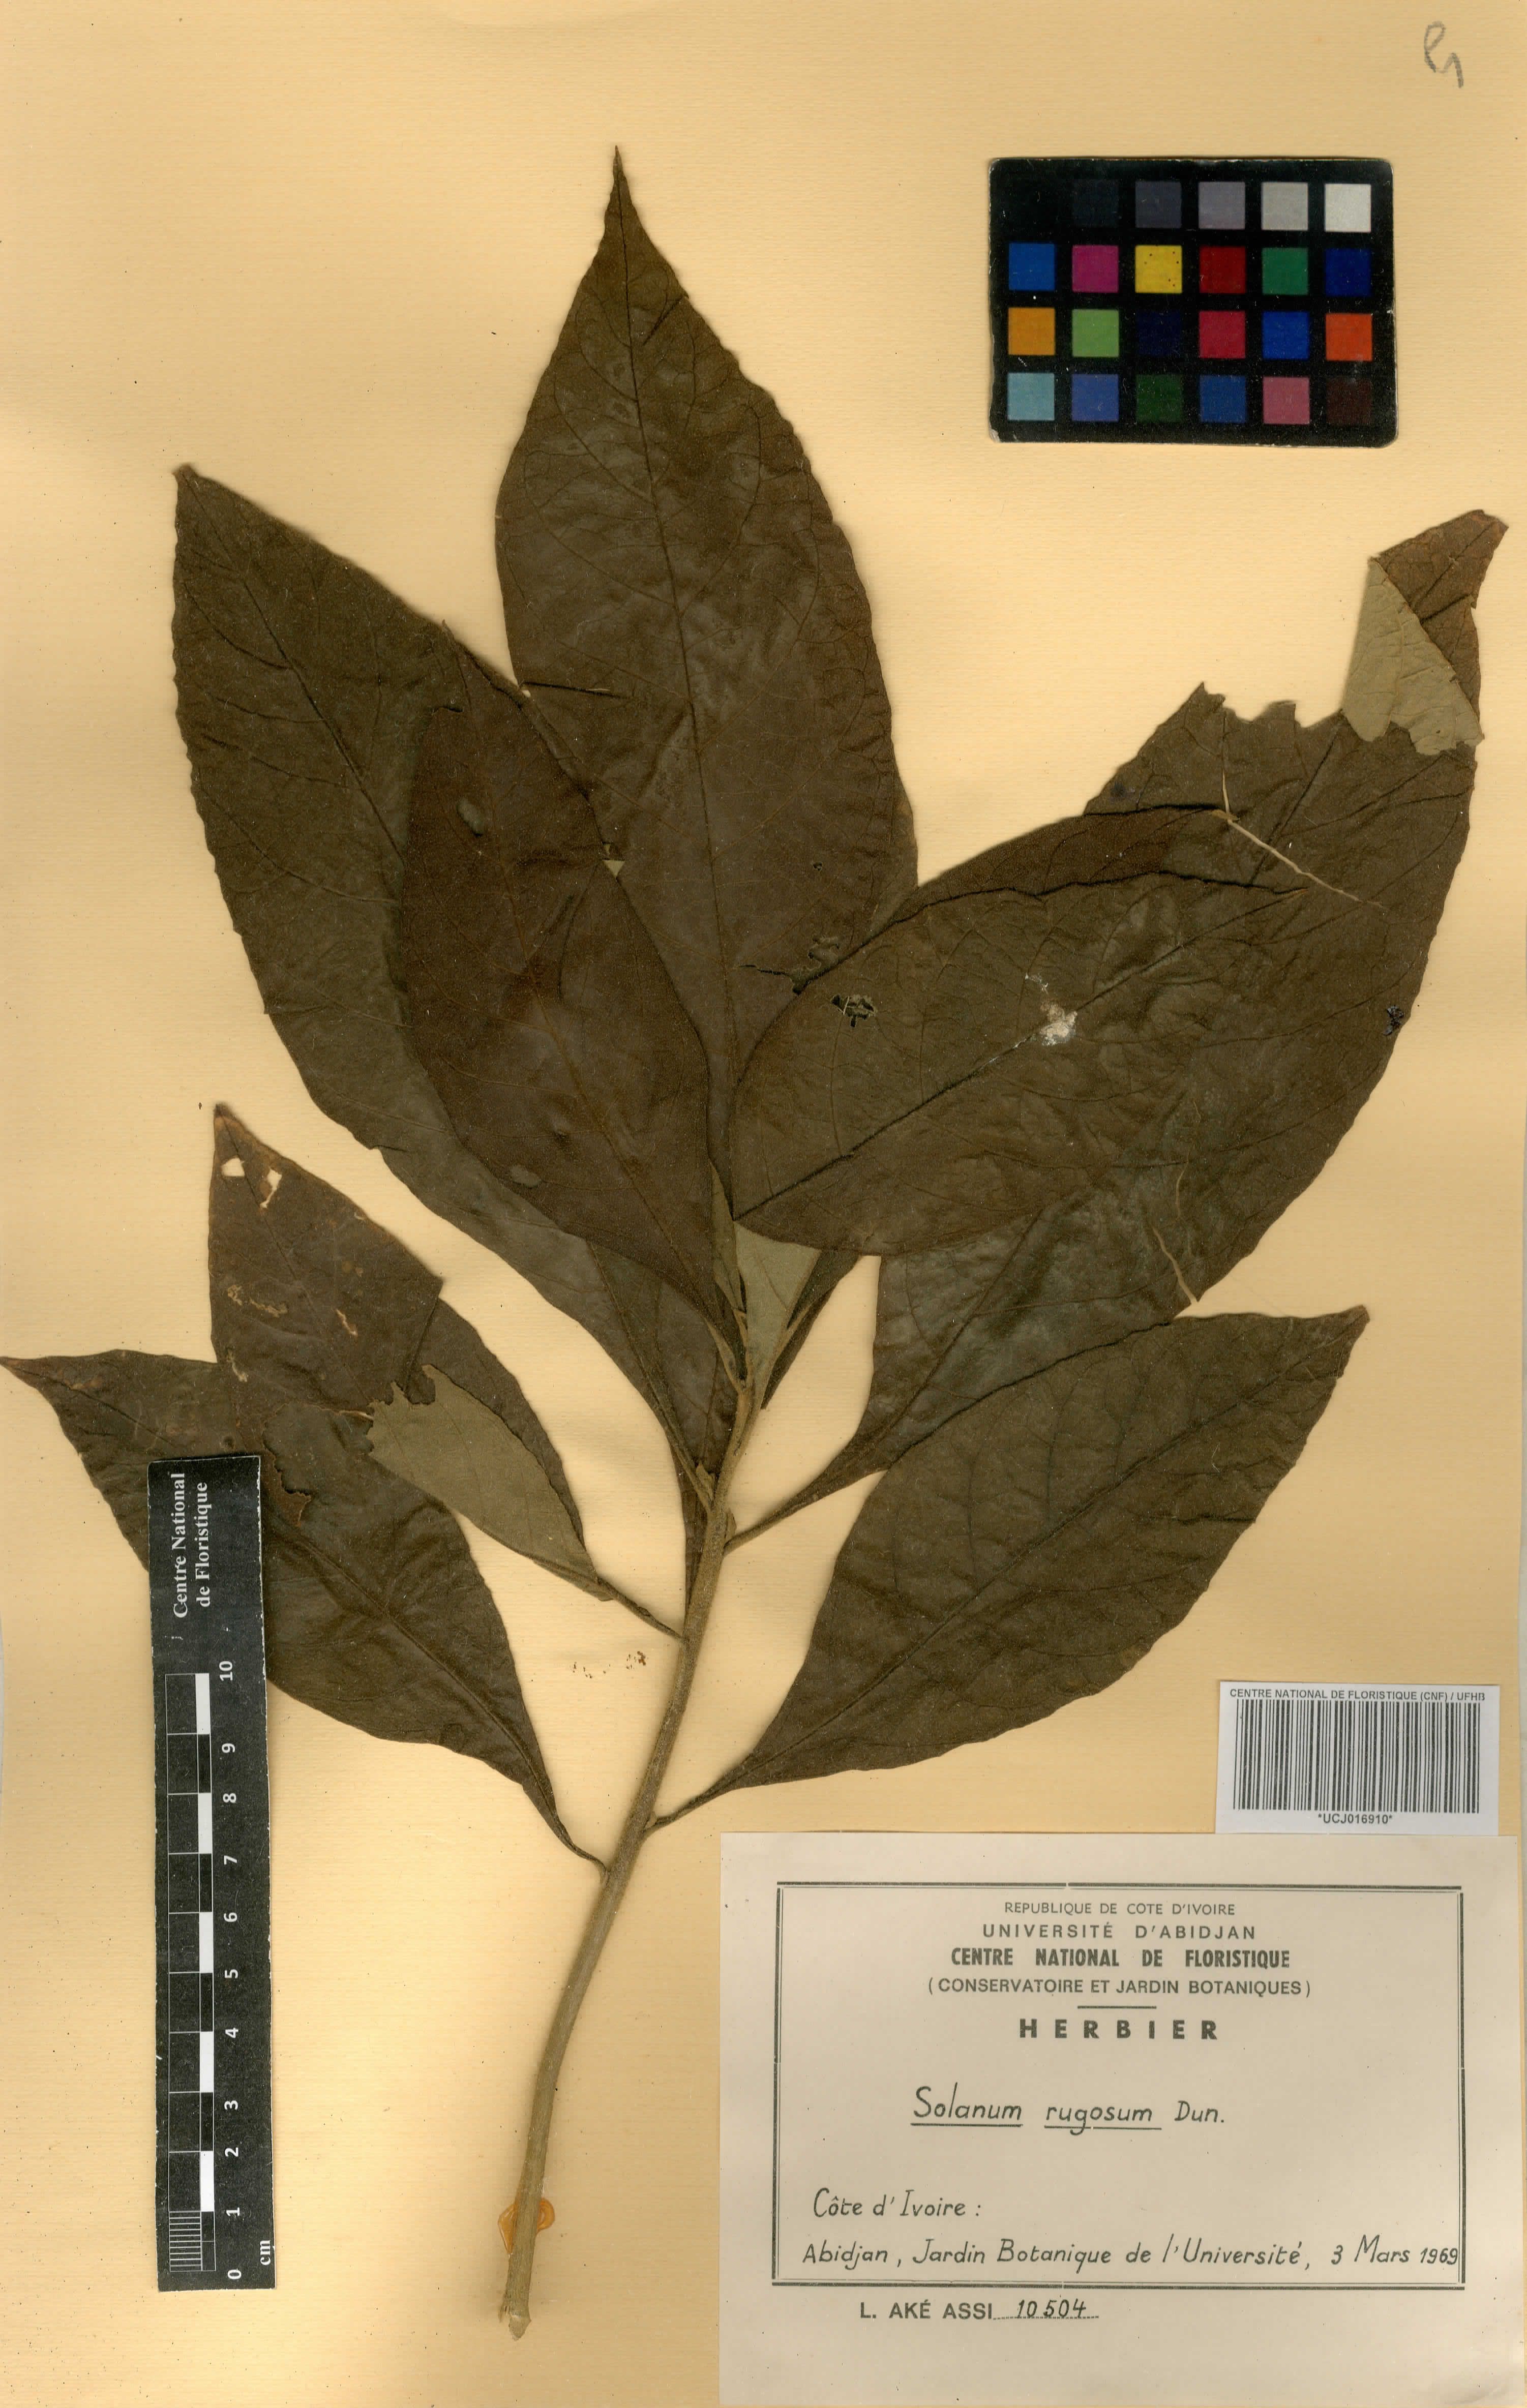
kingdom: Plantae
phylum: Tracheophyta
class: Magnoliopsida
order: Solanales
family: Solanaceae
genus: Solanum
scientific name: Solanum rugosum
